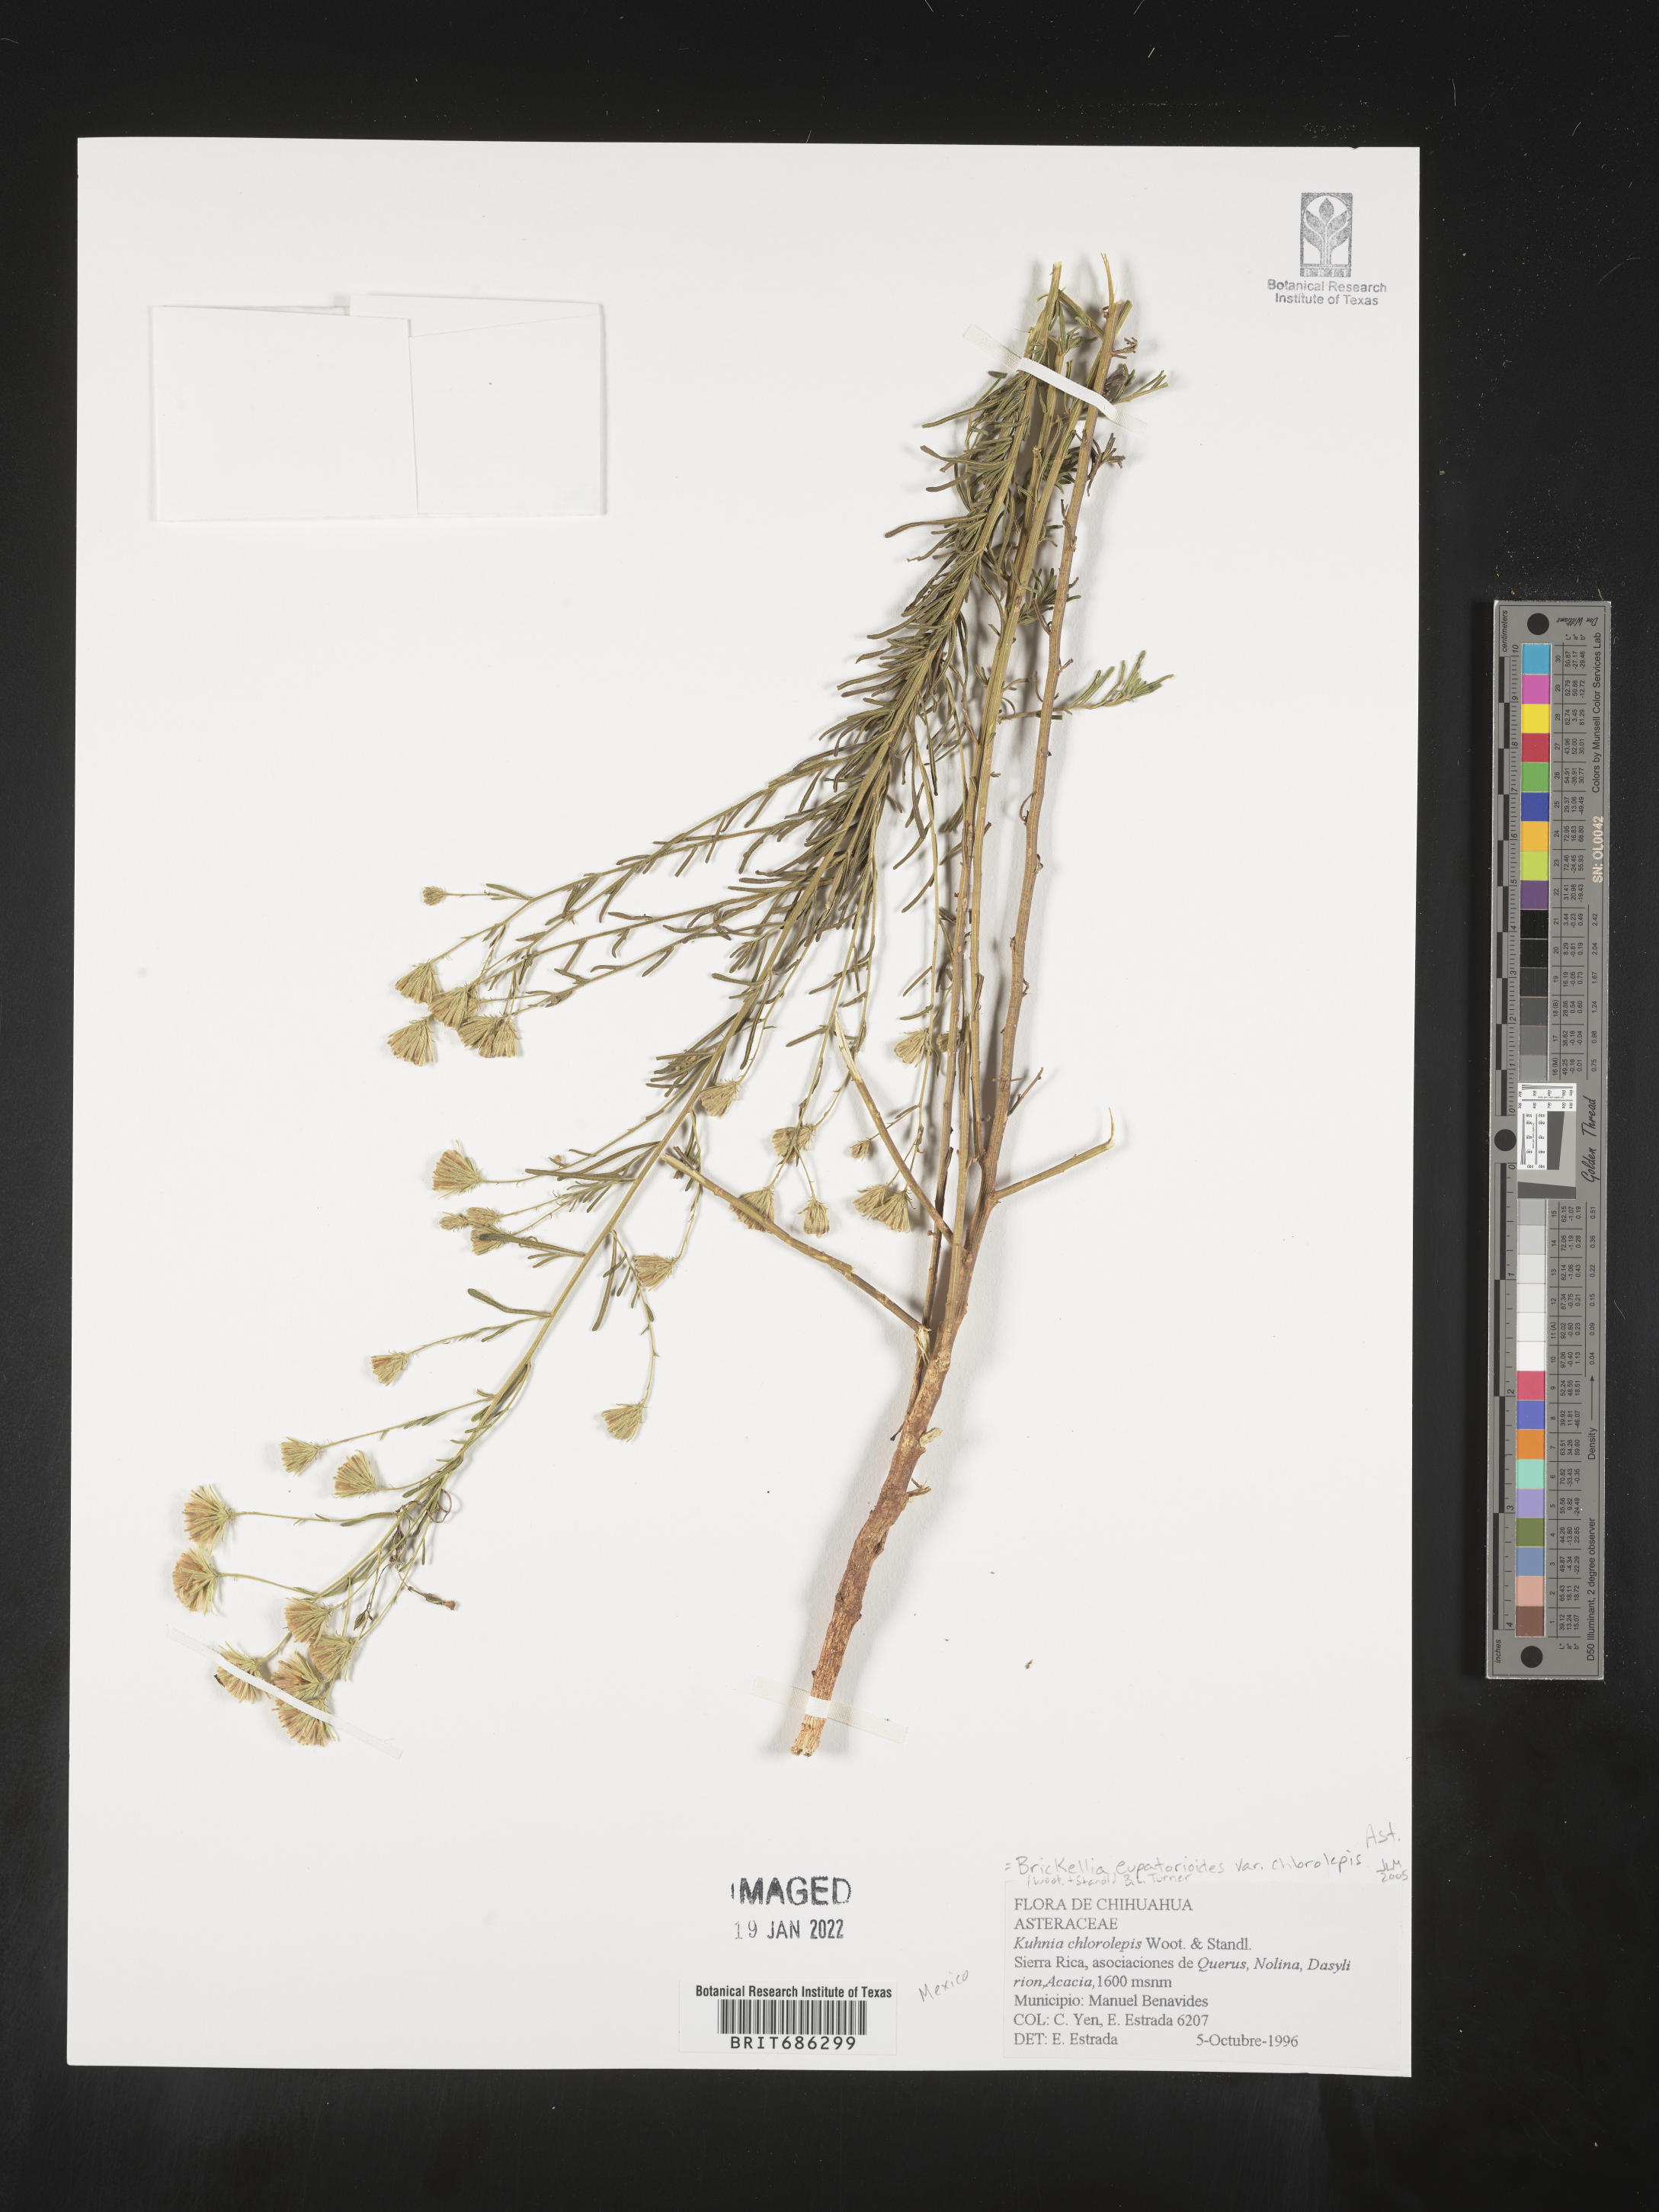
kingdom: Plantae
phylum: Tracheophyta
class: Magnoliopsida
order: Asterales
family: Asteraceae
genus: Brickellia
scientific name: Brickellia
